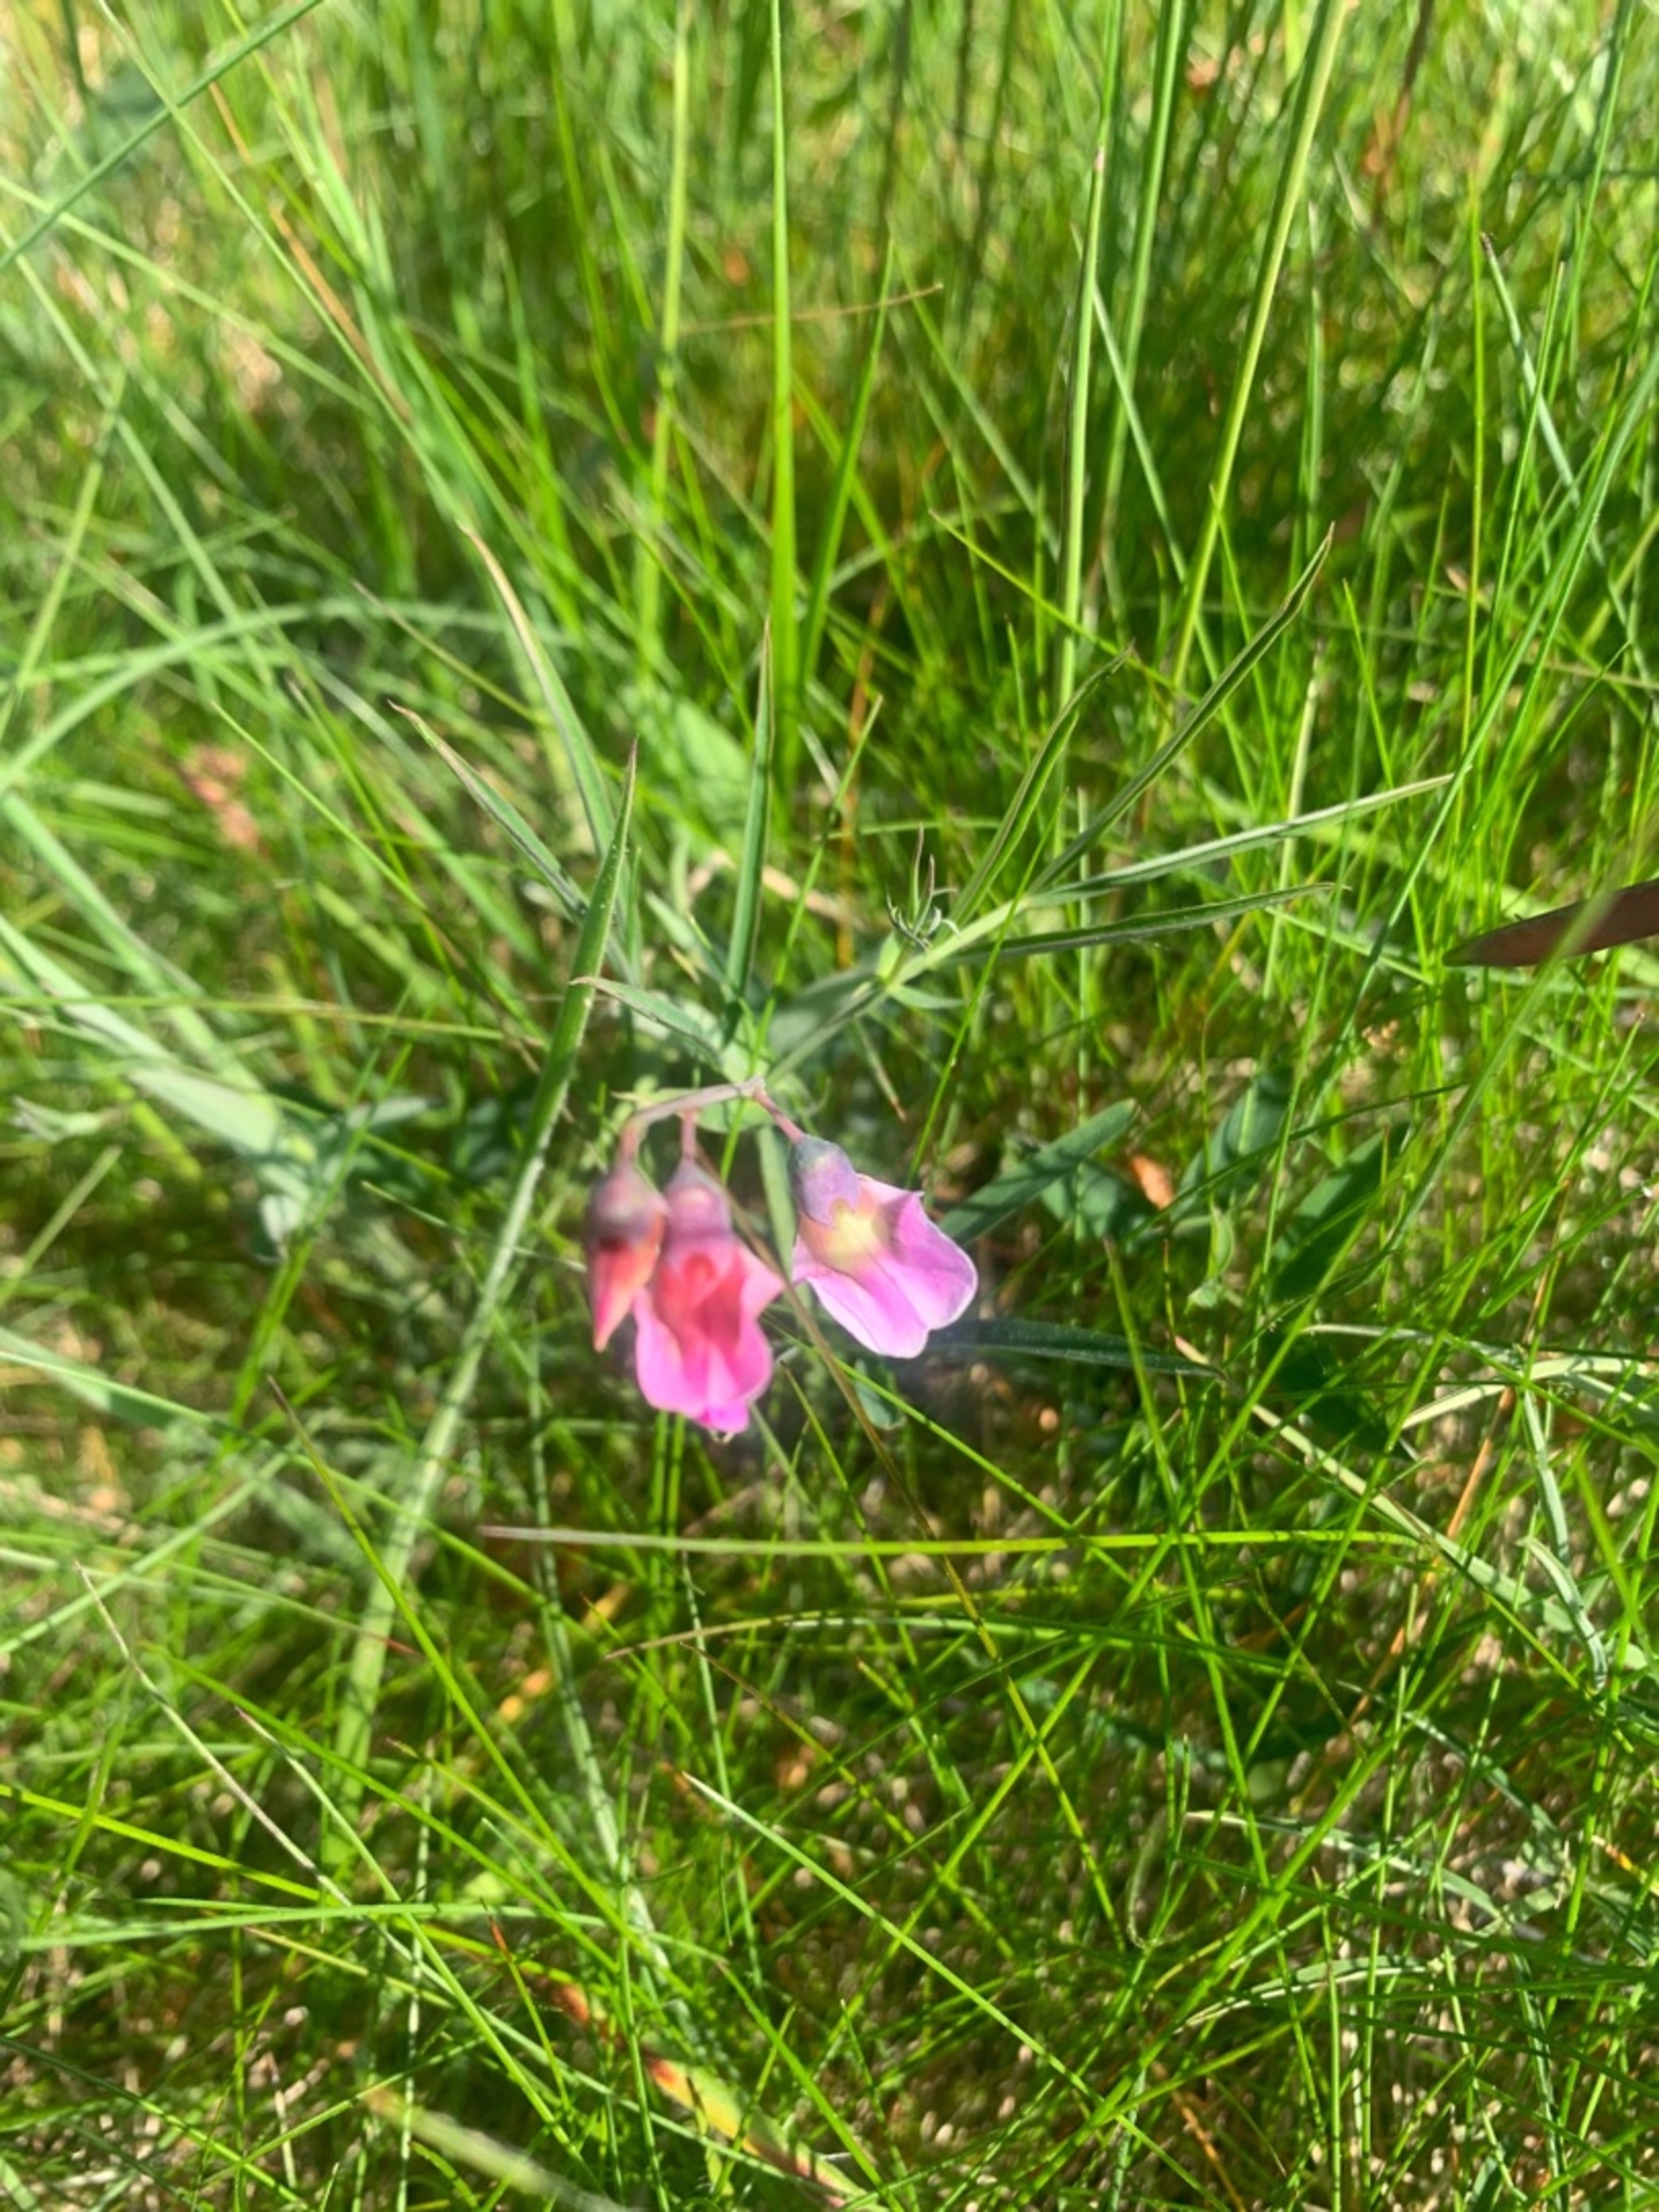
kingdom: Plantae
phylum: Tracheophyta
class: Magnoliopsida
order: Fabales
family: Fabaceae
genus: Lathyrus
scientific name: Lathyrus linifolius
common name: Krat-fladbælg
